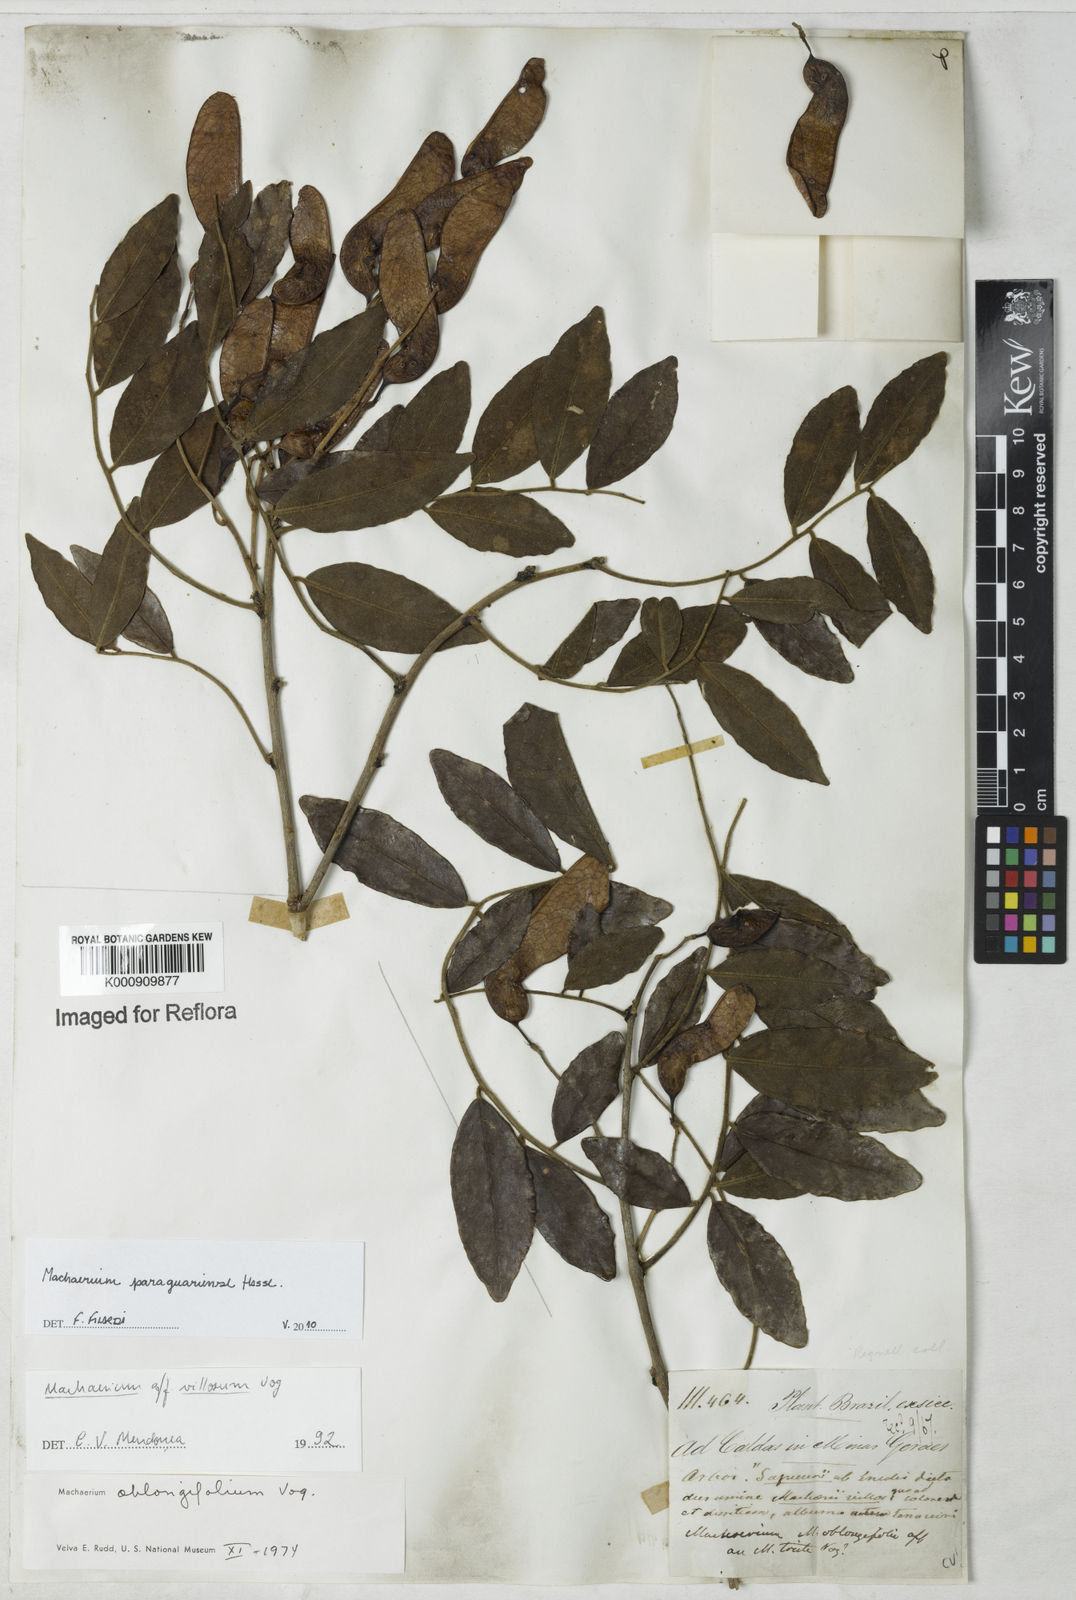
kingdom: Plantae
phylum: Tracheophyta
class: Magnoliopsida
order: Fabales
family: Fabaceae
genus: Machaerium
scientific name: Machaerium oblongifolium
